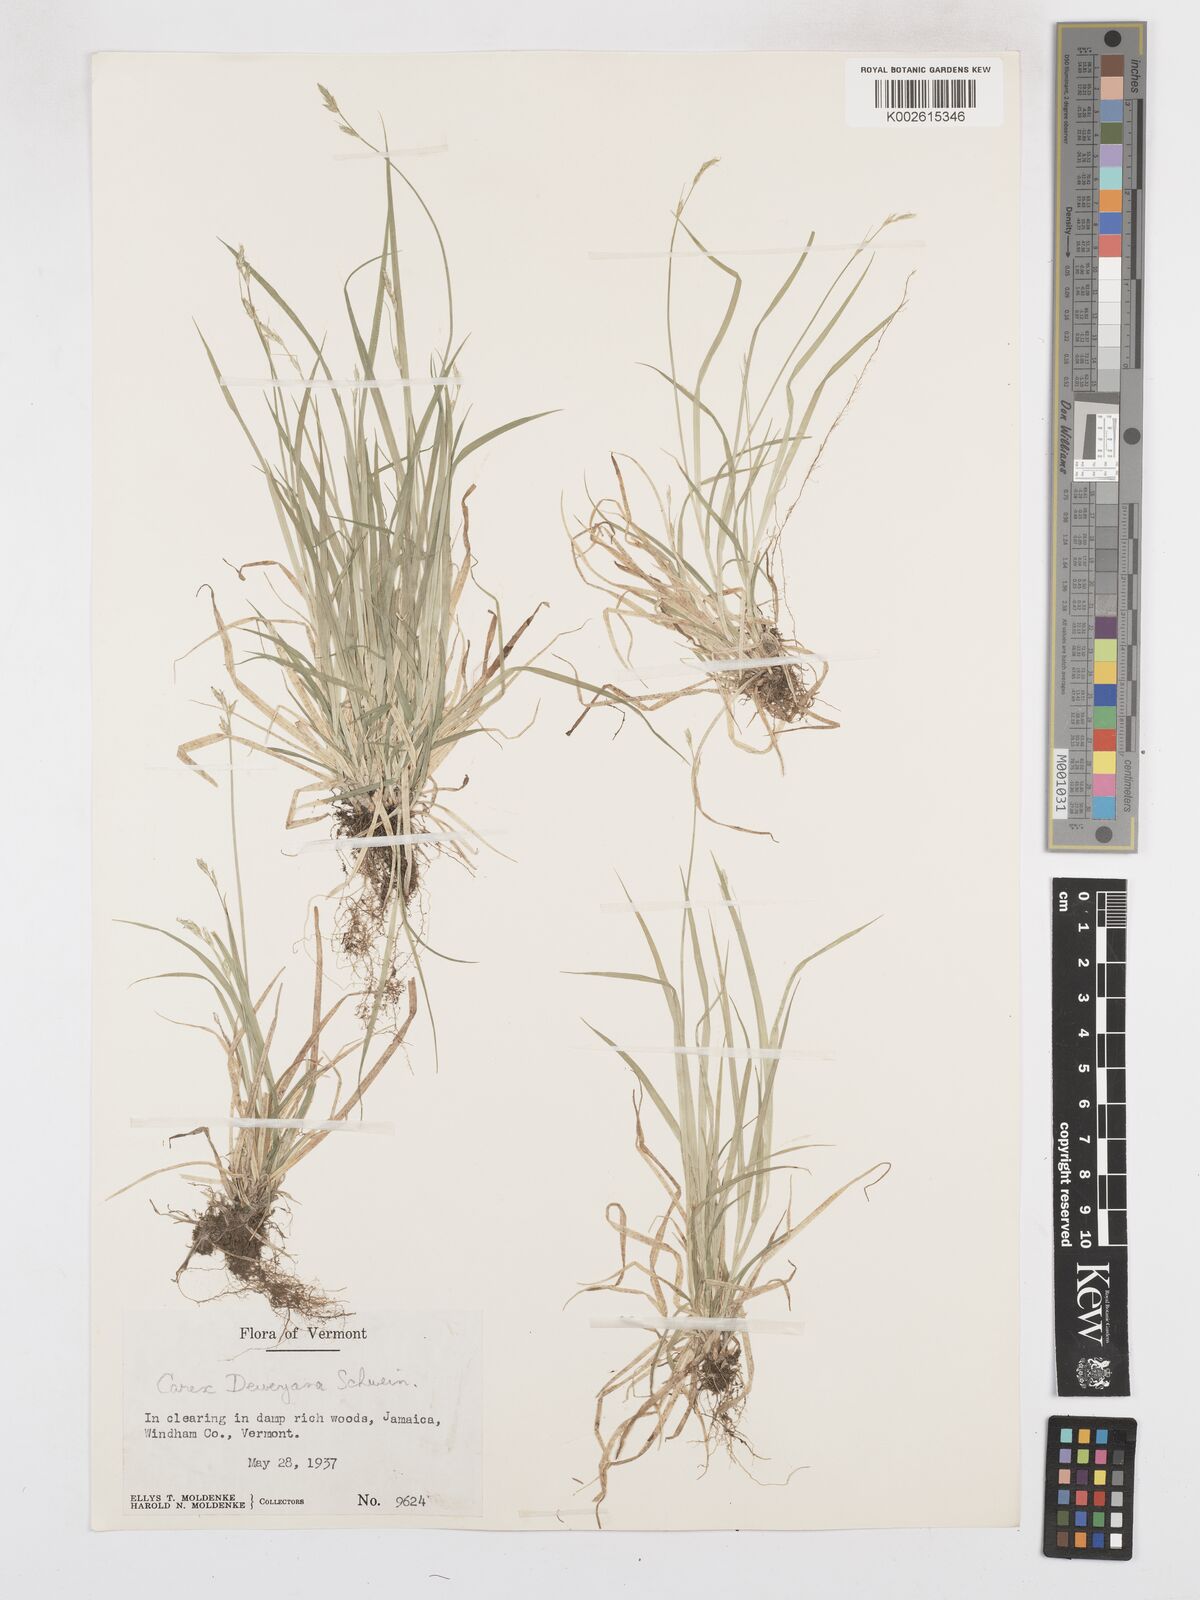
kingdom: Plantae
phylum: Tracheophyta
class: Liliopsida
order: Poales
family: Cyperaceae
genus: Carex
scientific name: Carex deweyana
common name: Dewey's sedge
